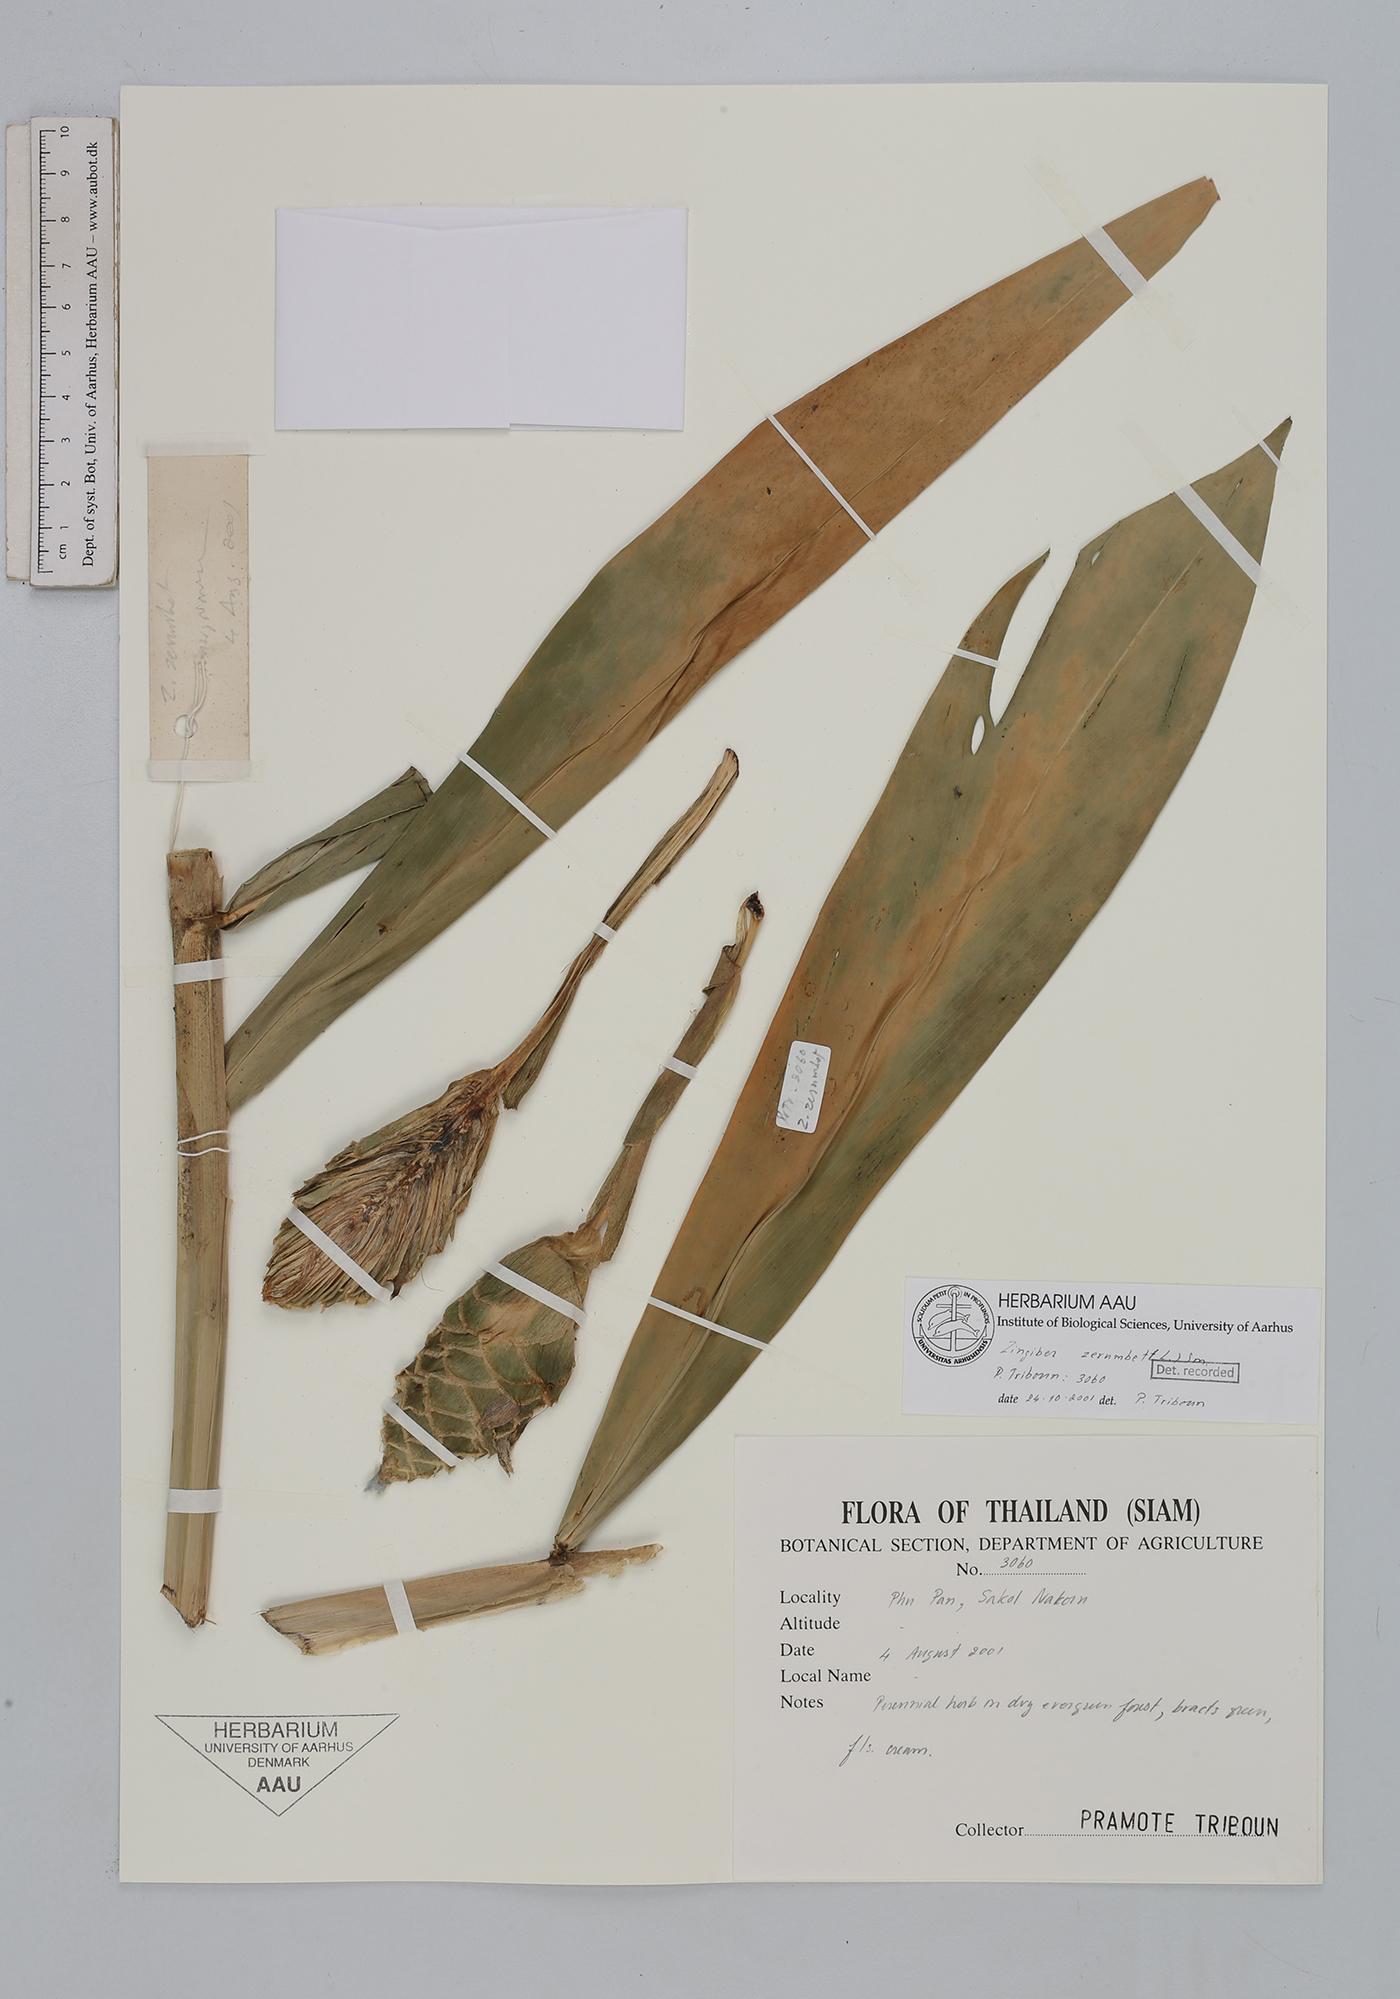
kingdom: Plantae
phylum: Tracheophyta
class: Liliopsida
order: Zingiberales
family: Zingiberaceae
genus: Zingiber
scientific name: Zingiber zerumbet
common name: Bitter ginger
